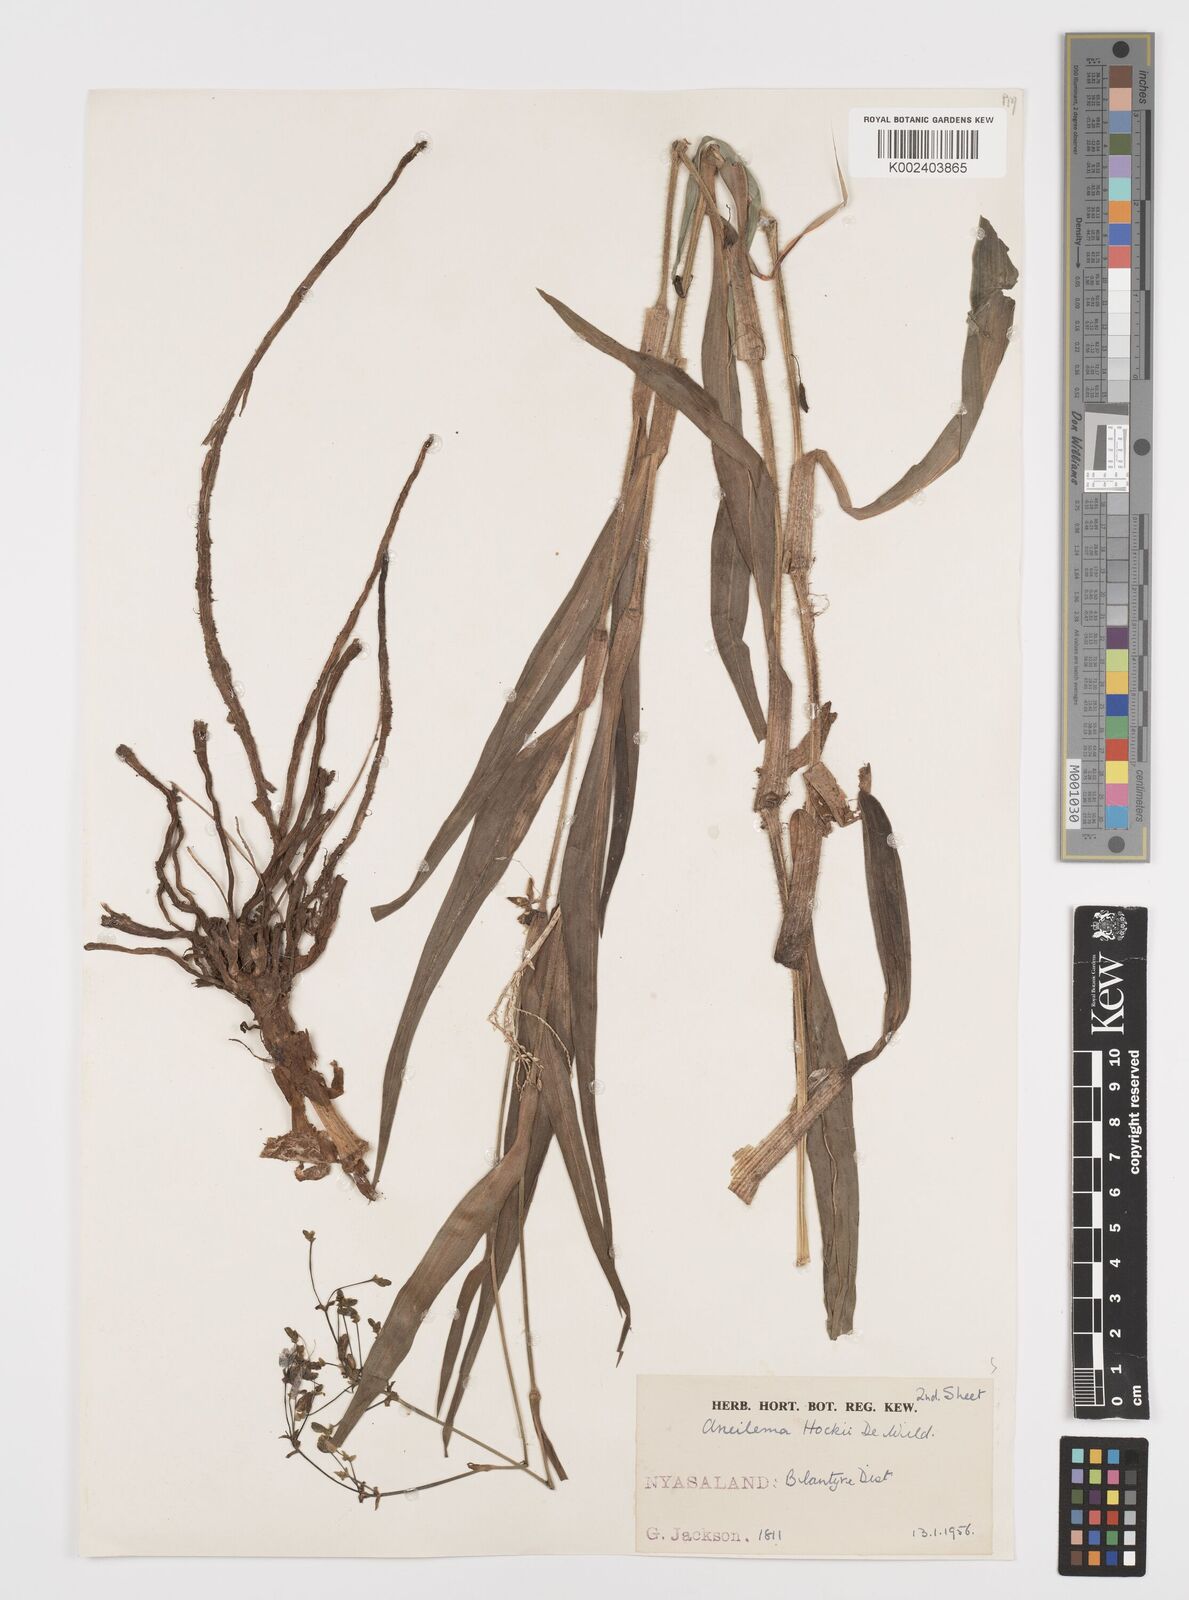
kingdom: Plantae
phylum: Tracheophyta
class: Liliopsida
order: Commelinales
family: Commelinaceae
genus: Aneilema
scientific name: Aneilema hockii
